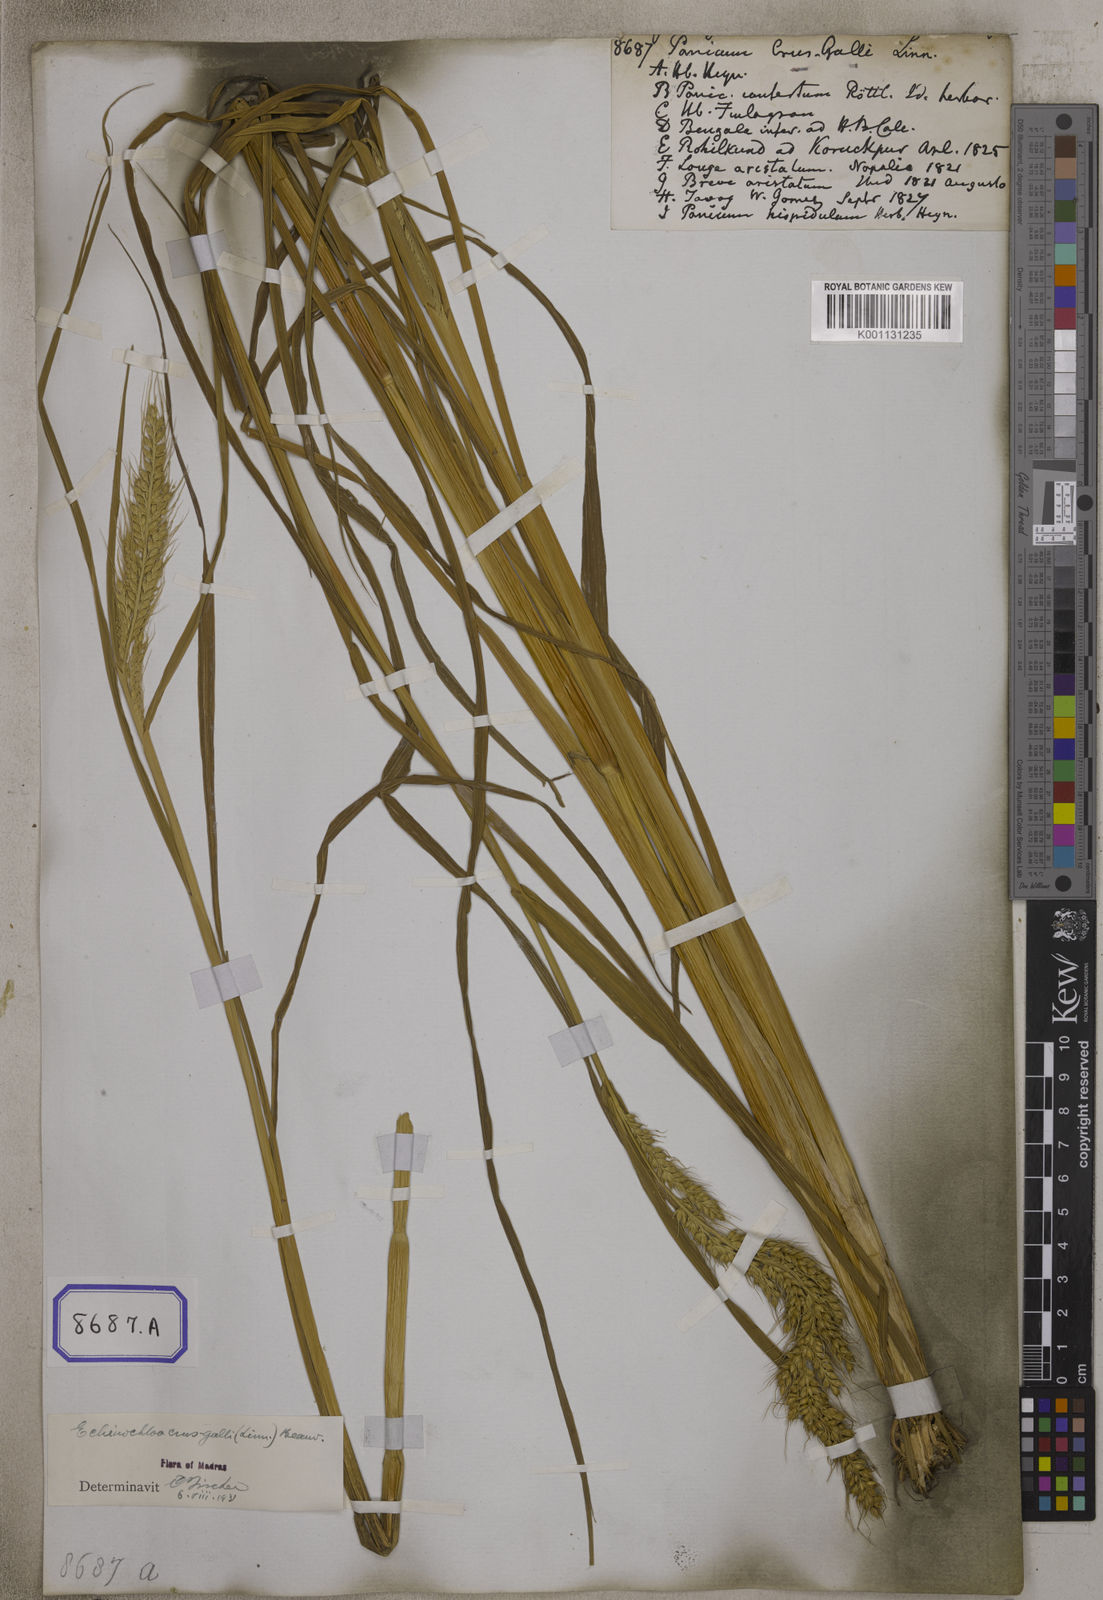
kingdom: Plantae
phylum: Tracheophyta
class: Liliopsida
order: Poales
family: Poaceae
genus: Echinochloa
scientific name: Echinochloa crus-galli
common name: Cockspur
